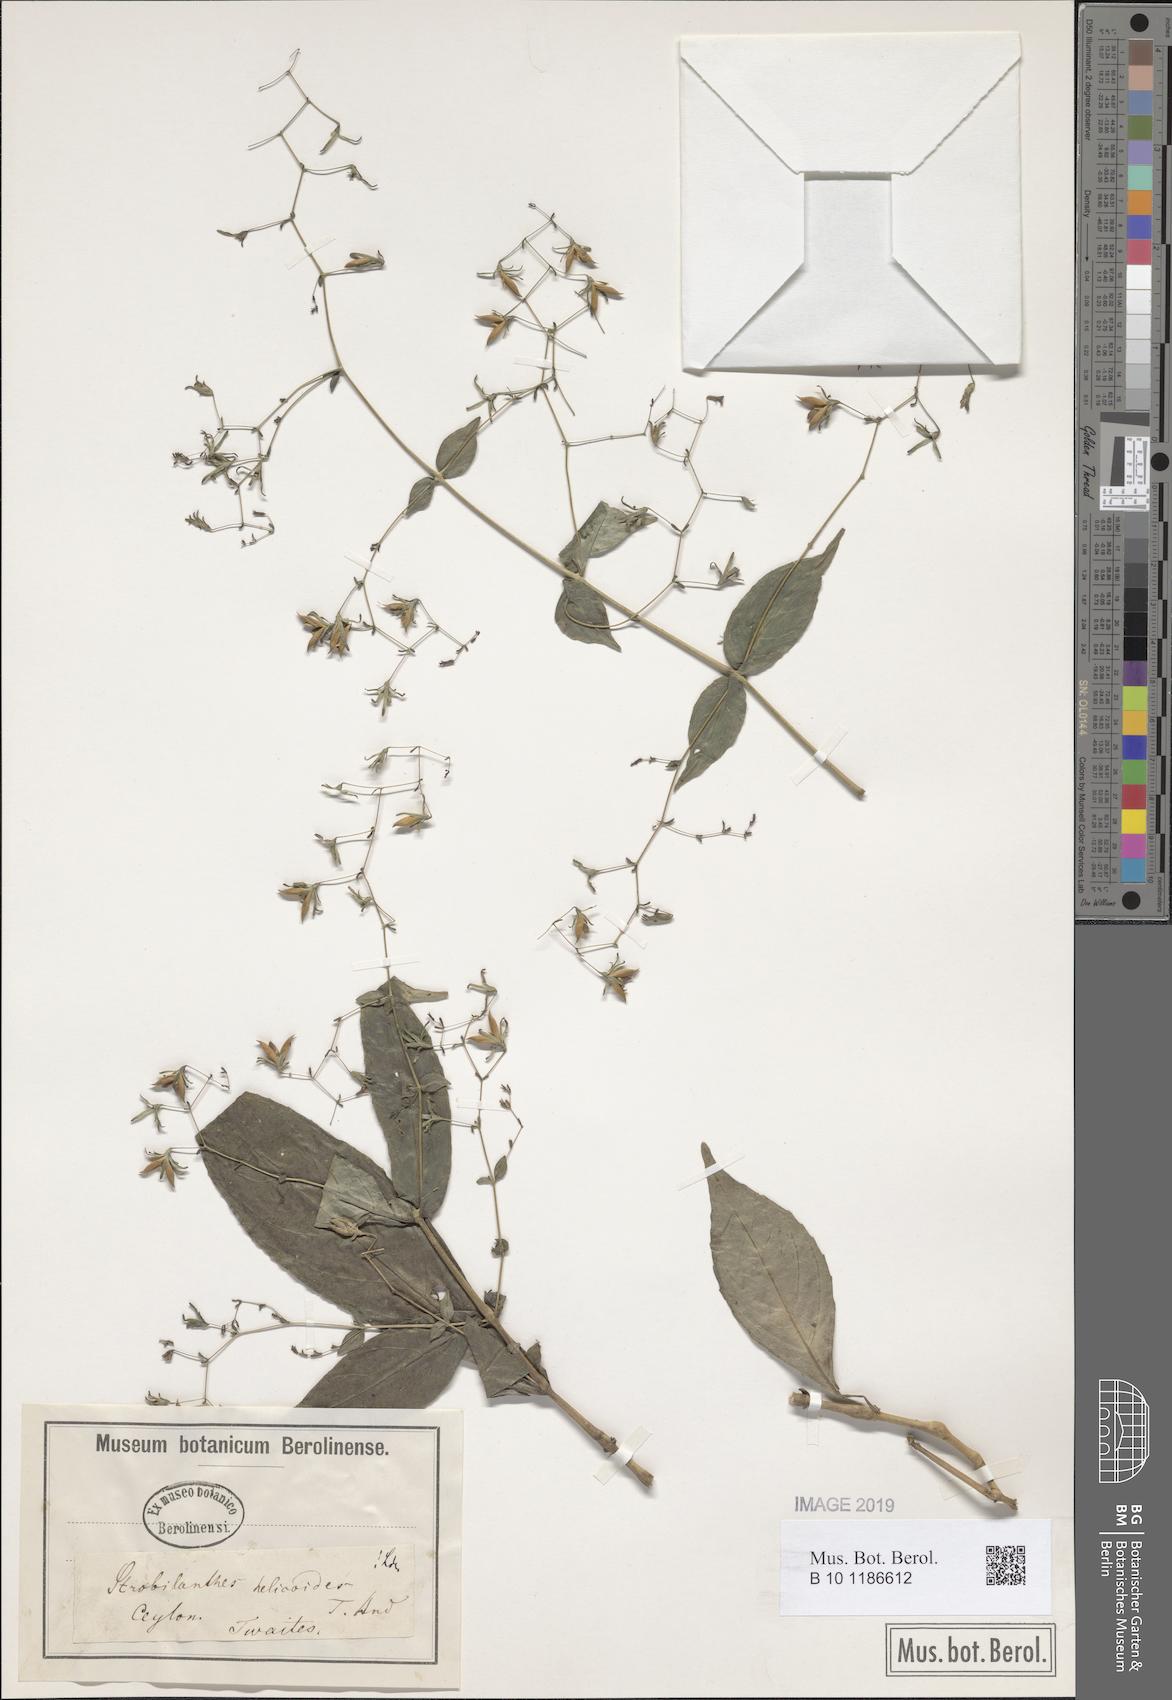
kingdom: Plantae
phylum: Tracheophyta
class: Magnoliopsida
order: Lamiales
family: Acanthaceae
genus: Strobilanthes
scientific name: Strobilanthes helicoides
